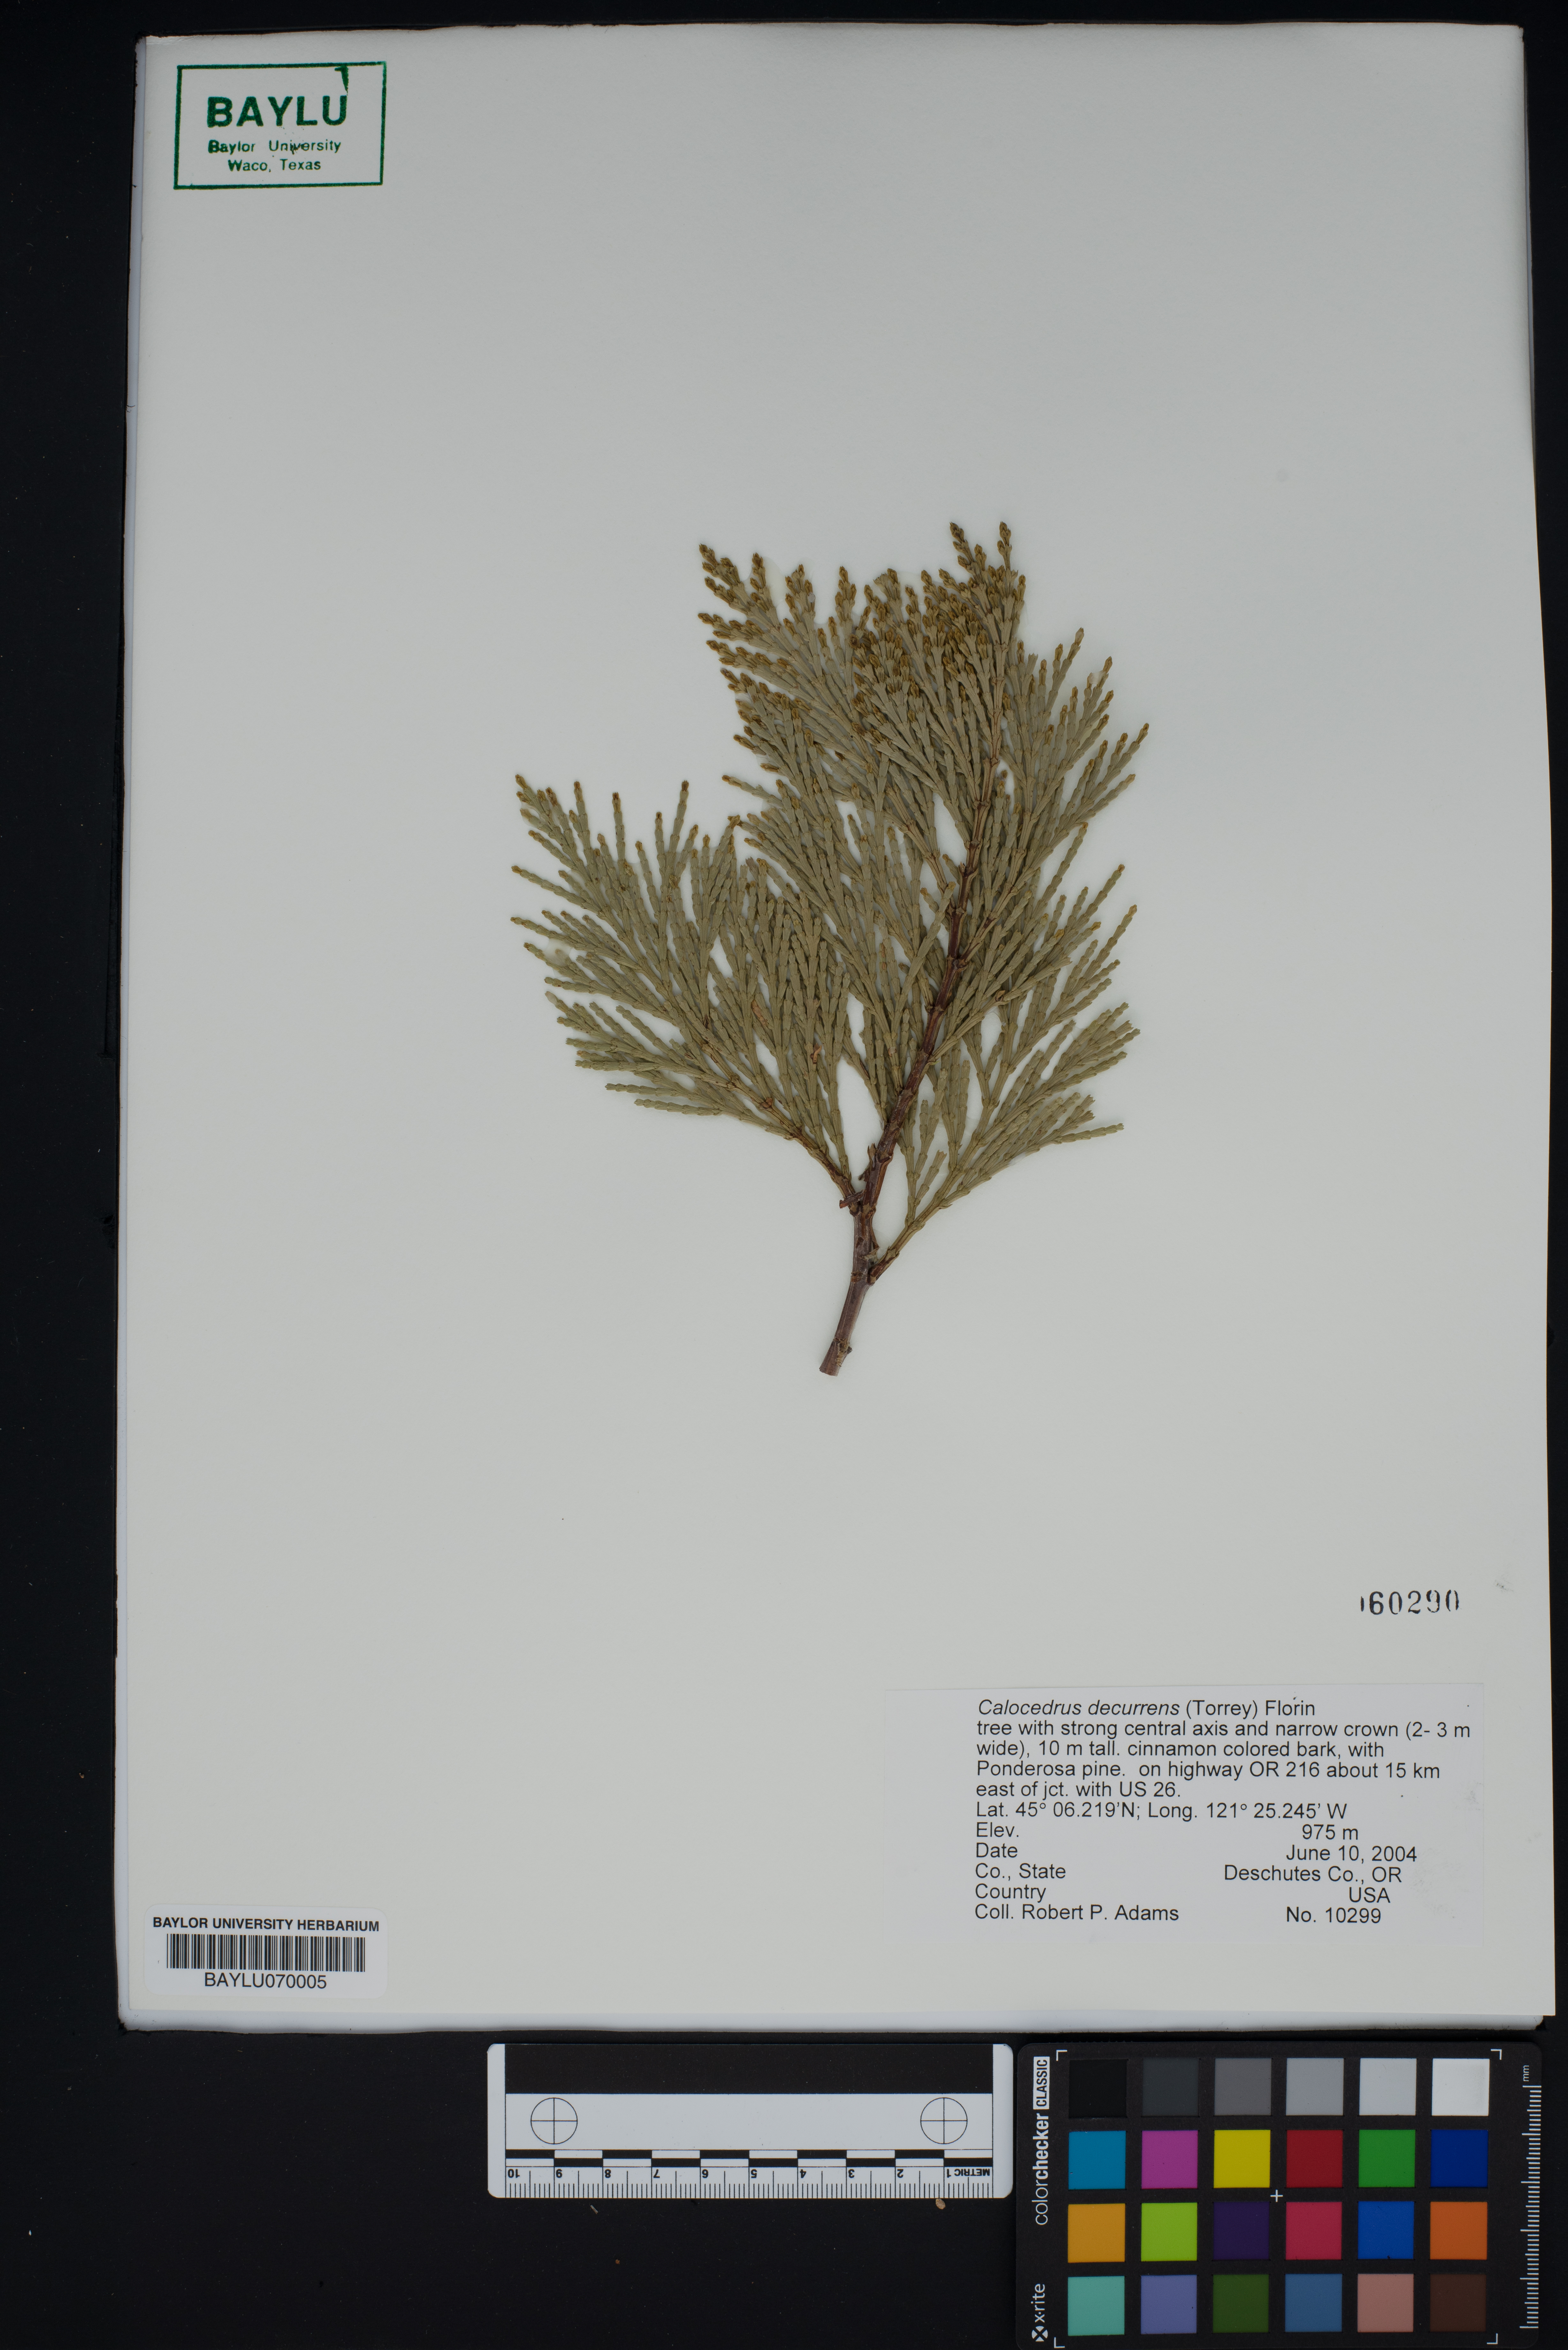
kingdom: Plantae
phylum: Tracheophyta
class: Pinopsida
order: Pinales
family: Cupressaceae
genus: Calocedrus
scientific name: Calocedrus decurrens
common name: Californian incense-cedar
